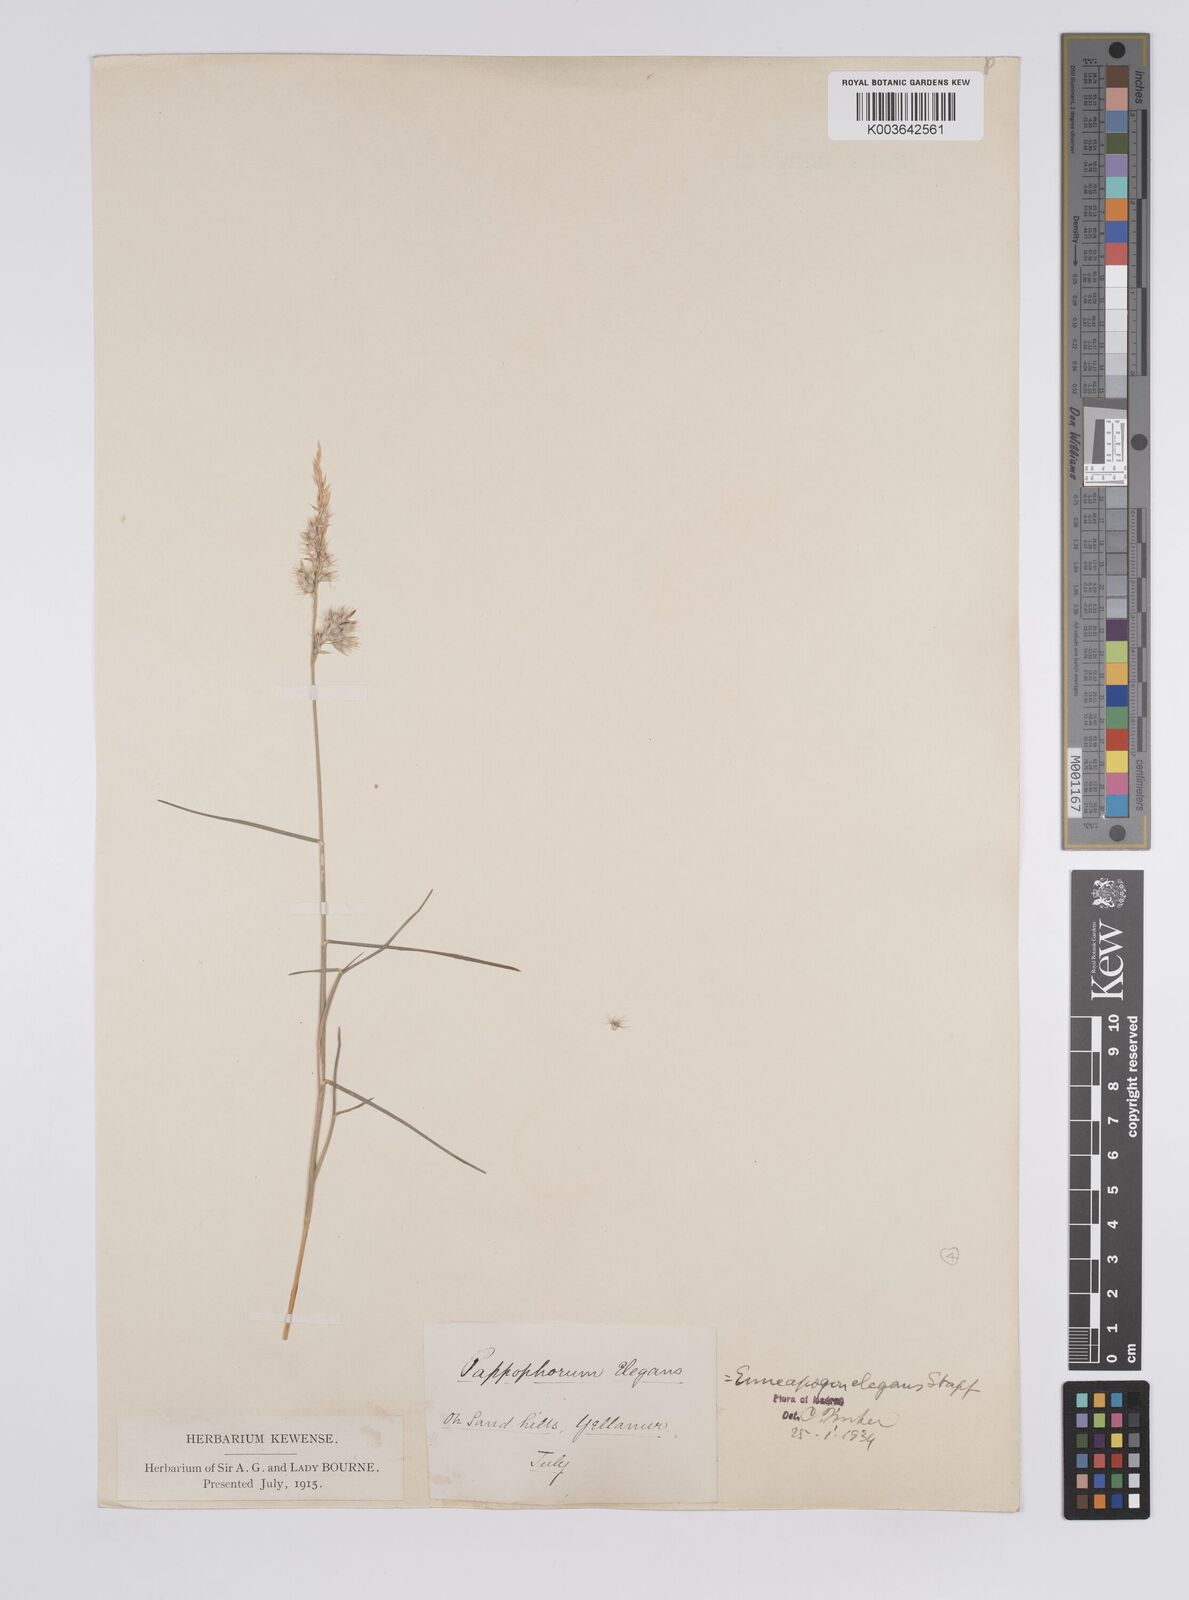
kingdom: Plantae
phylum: Tracheophyta
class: Liliopsida
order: Poales
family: Poaceae
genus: Enneapogon
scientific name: Enneapogon persicus
